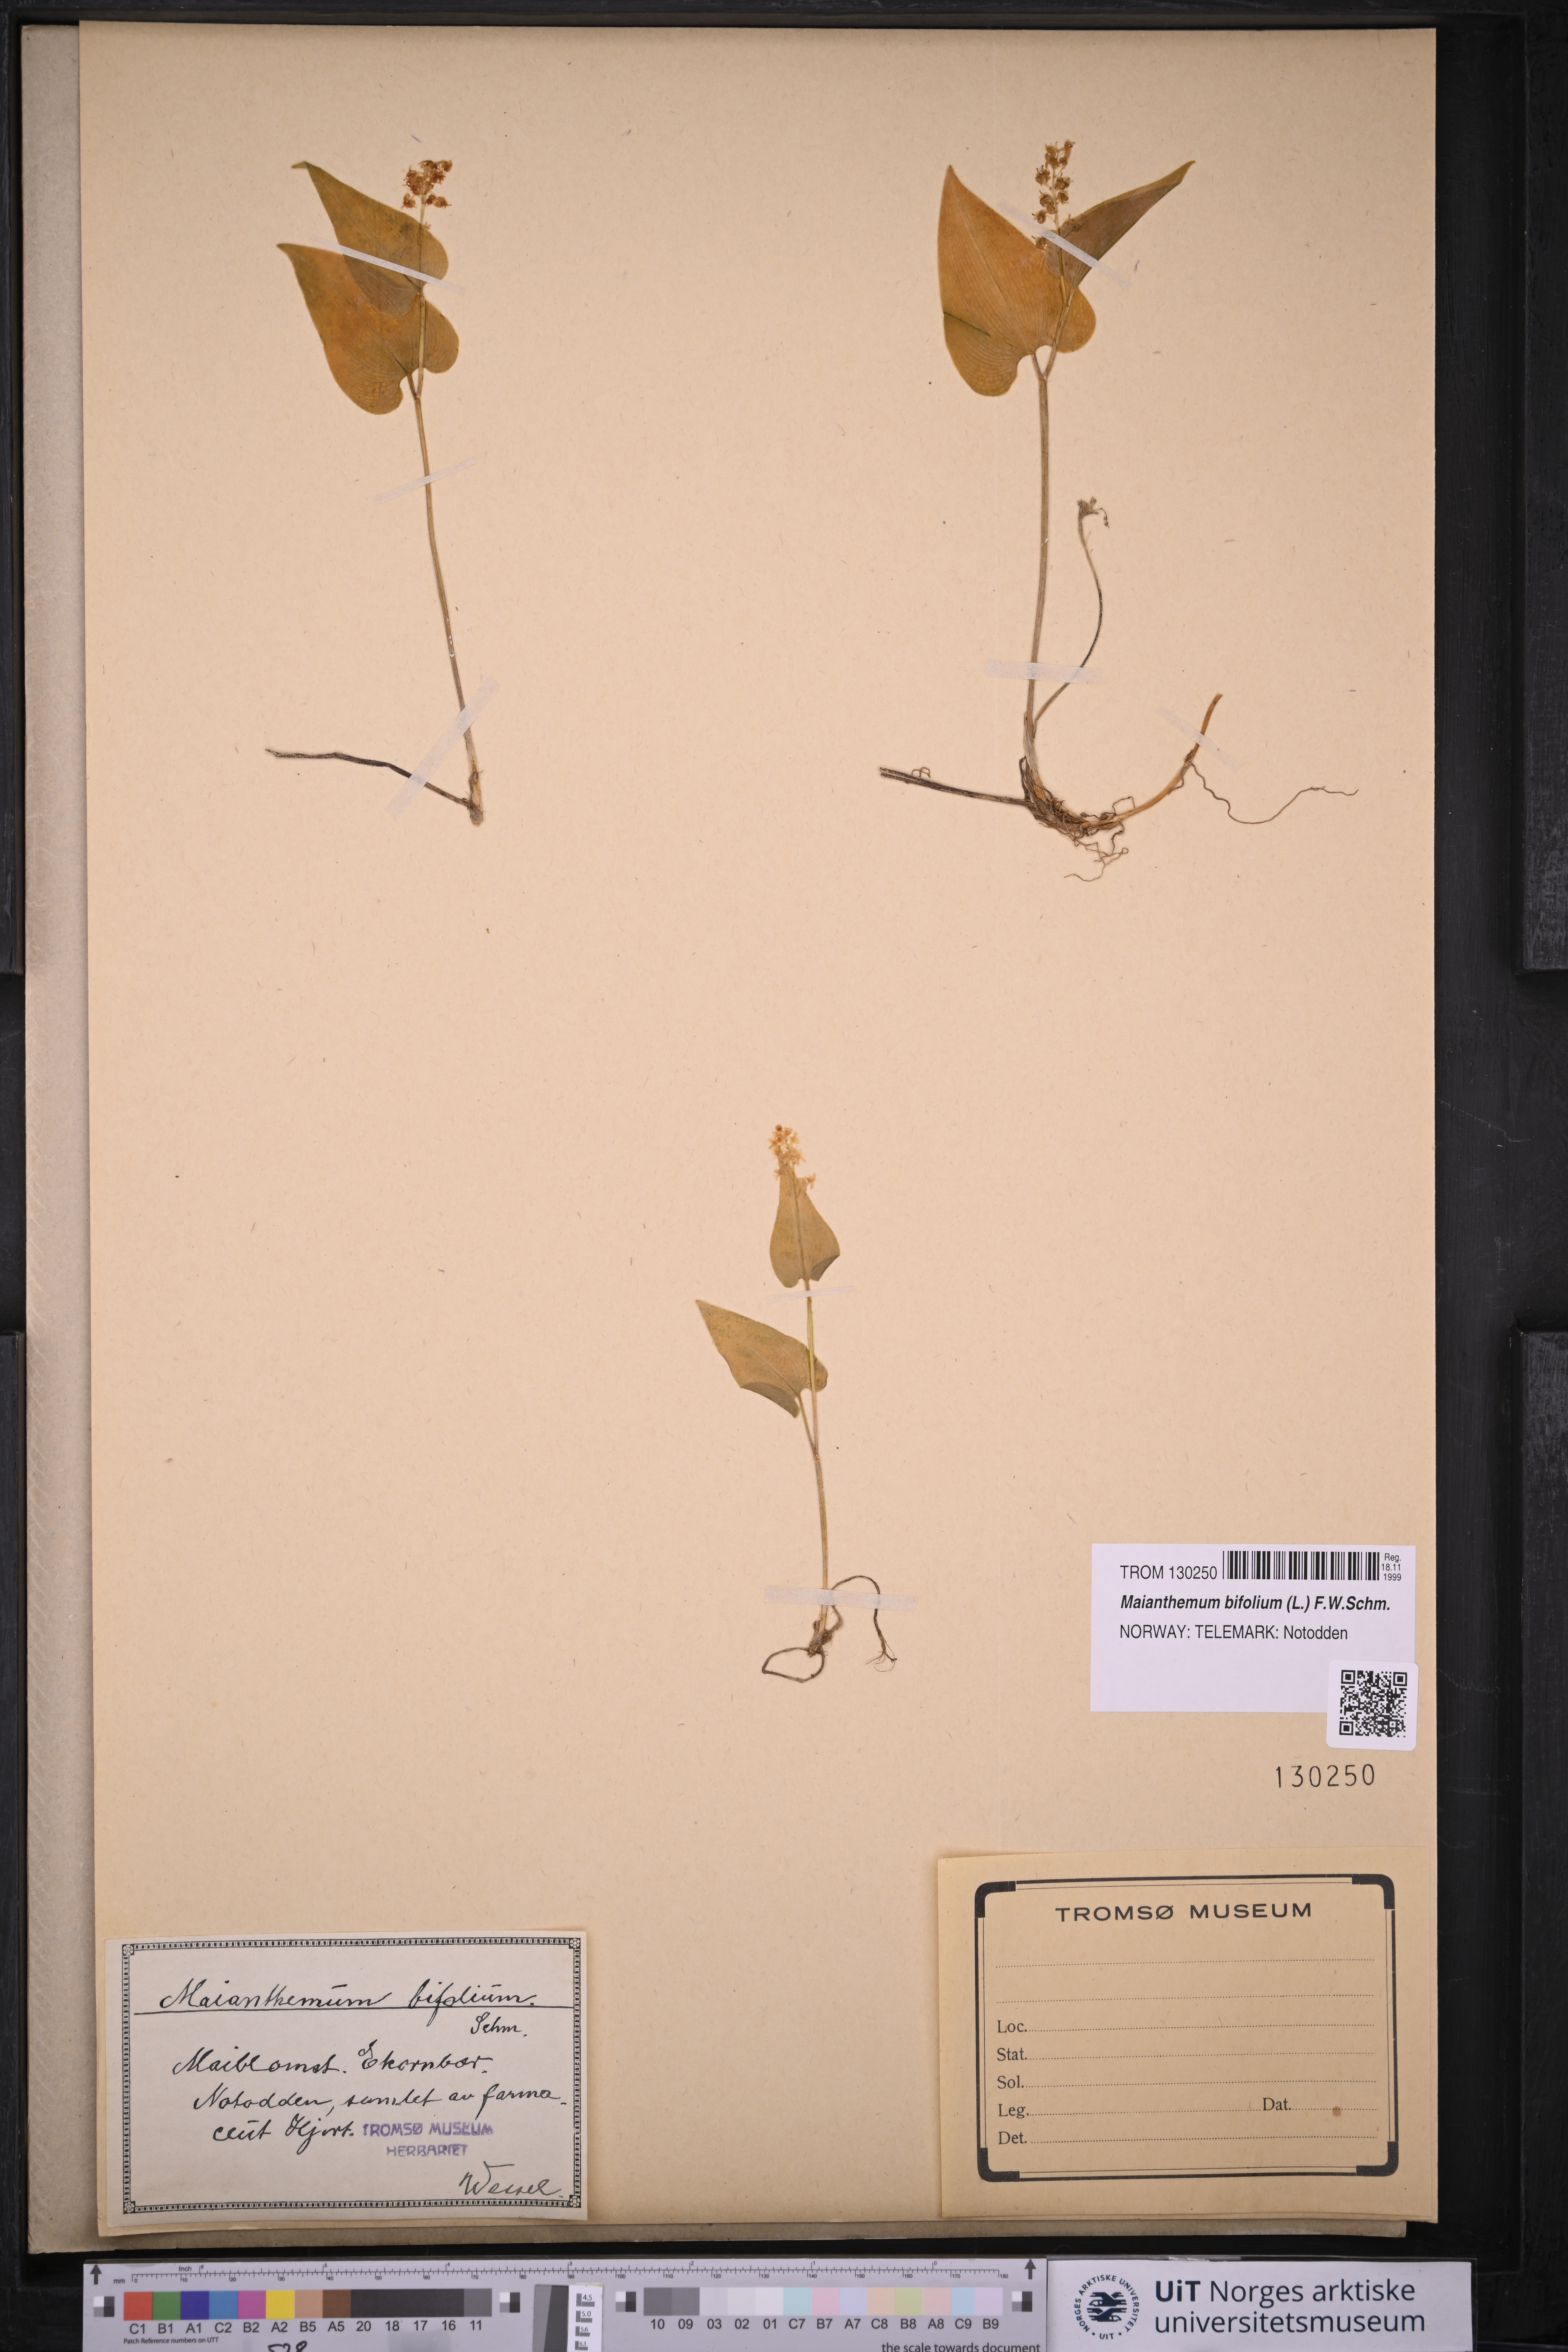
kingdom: Plantae
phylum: Tracheophyta
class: Liliopsida
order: Asparagales
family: Asparagaceae
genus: Maianthemum
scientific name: Maianthemum bifolium
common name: May lily
